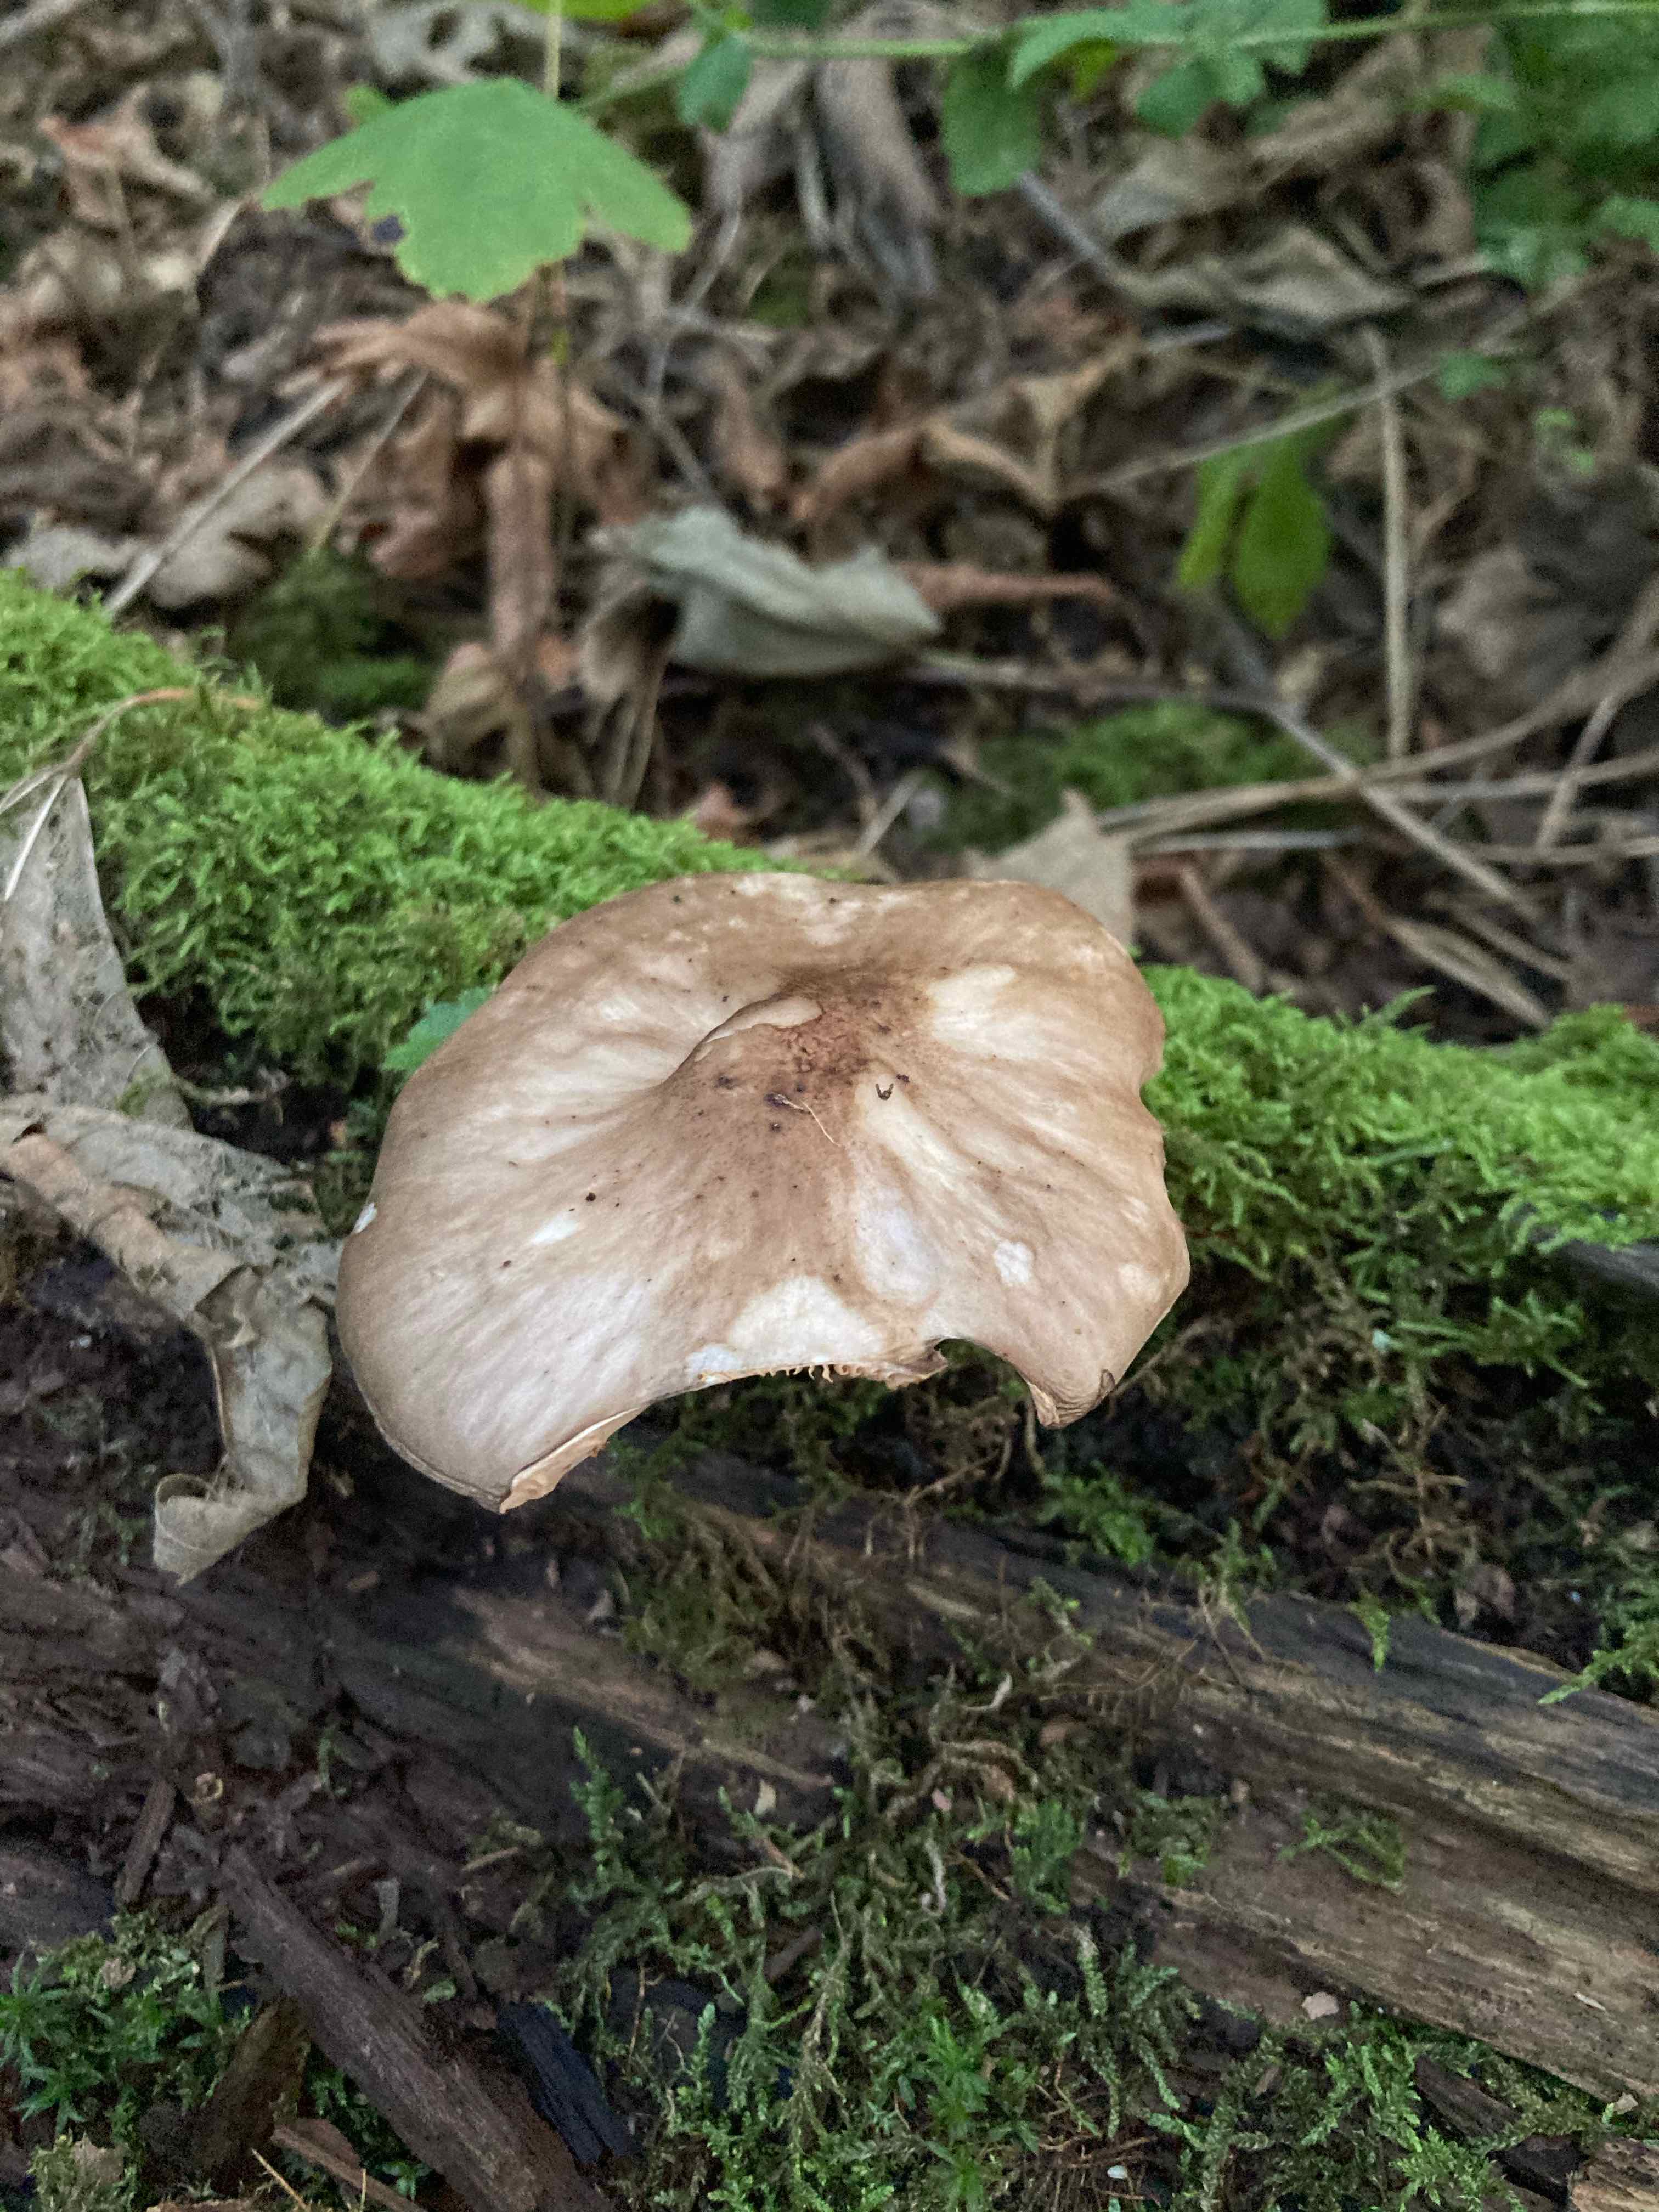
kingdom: Fungi
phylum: Basidiomycota
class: Agaricomycetes
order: Agaricales
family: Pluteaceae
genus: Pluteus
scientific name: Pluteus cervinus
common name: sodfarvet skærmhat
